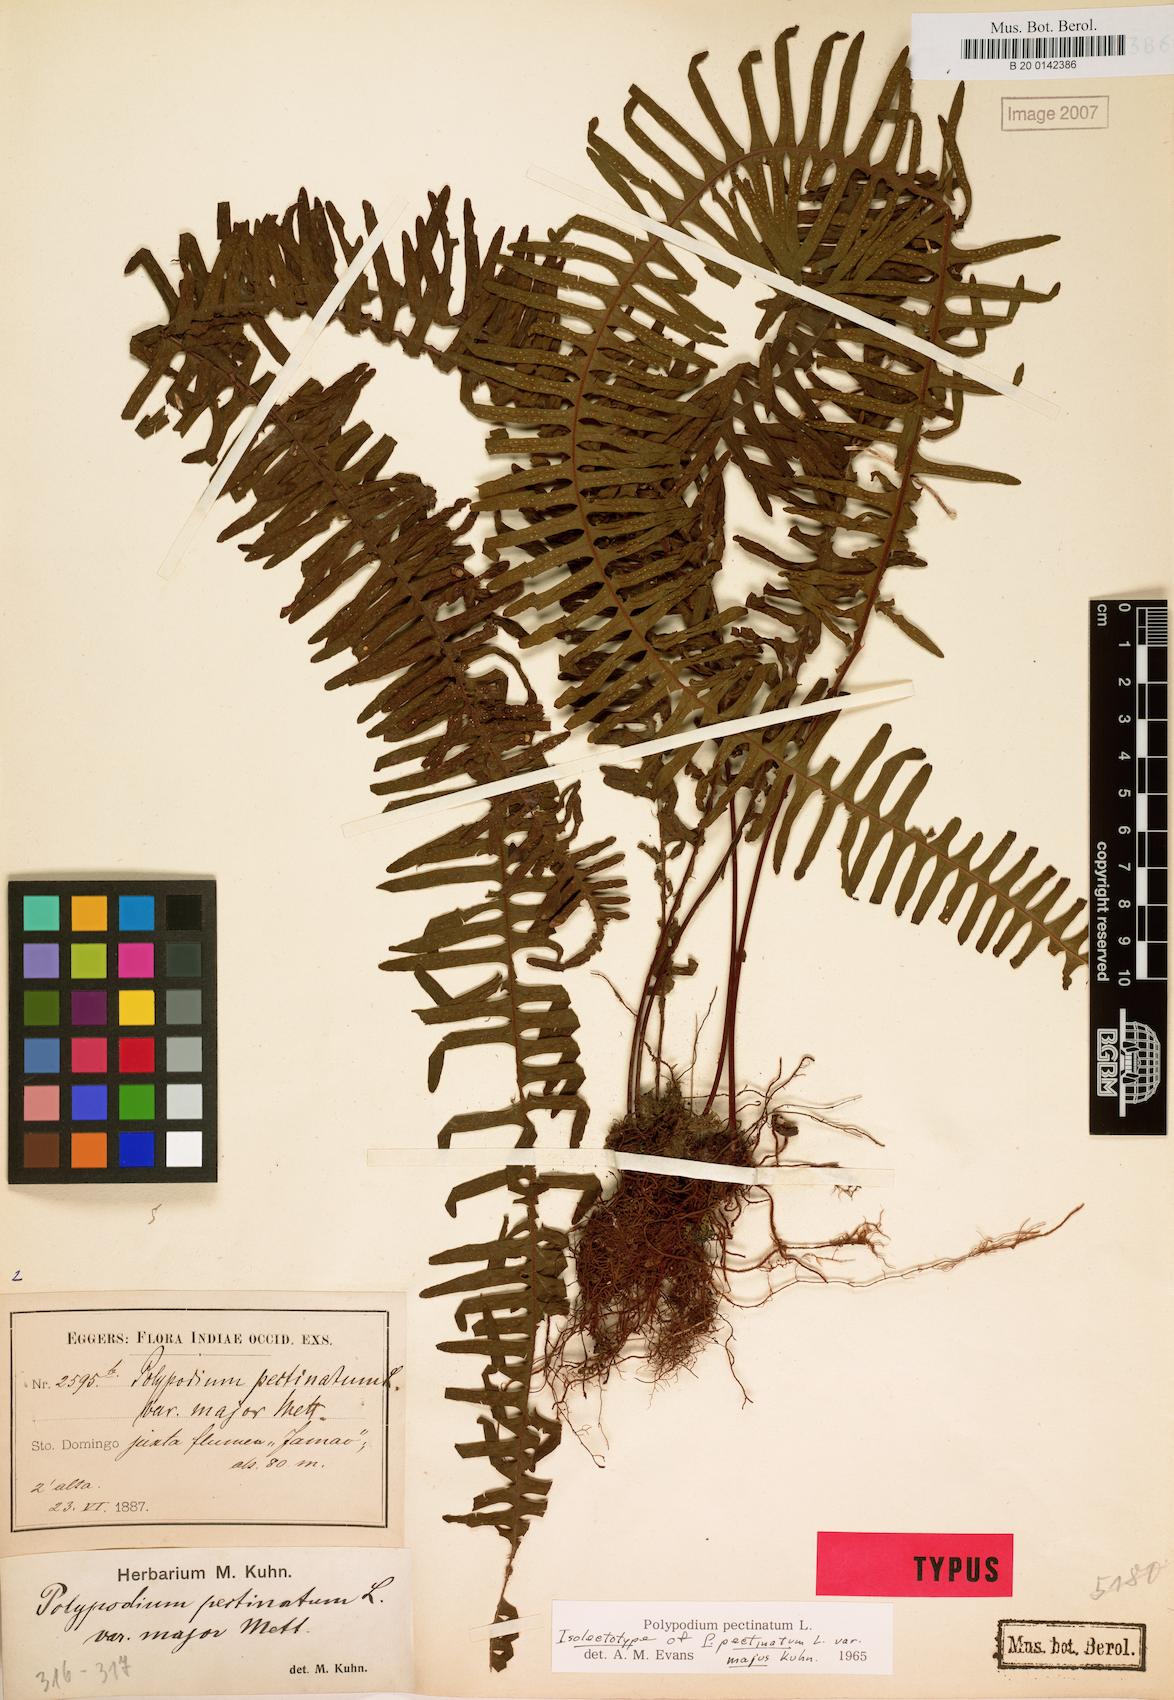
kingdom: Plantae
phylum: Tracheophyta
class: Polypodiopsida
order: Polypodiales
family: Polypodiaceae
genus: Pecluma
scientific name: Pecluma pectinata
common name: Msasa fern
